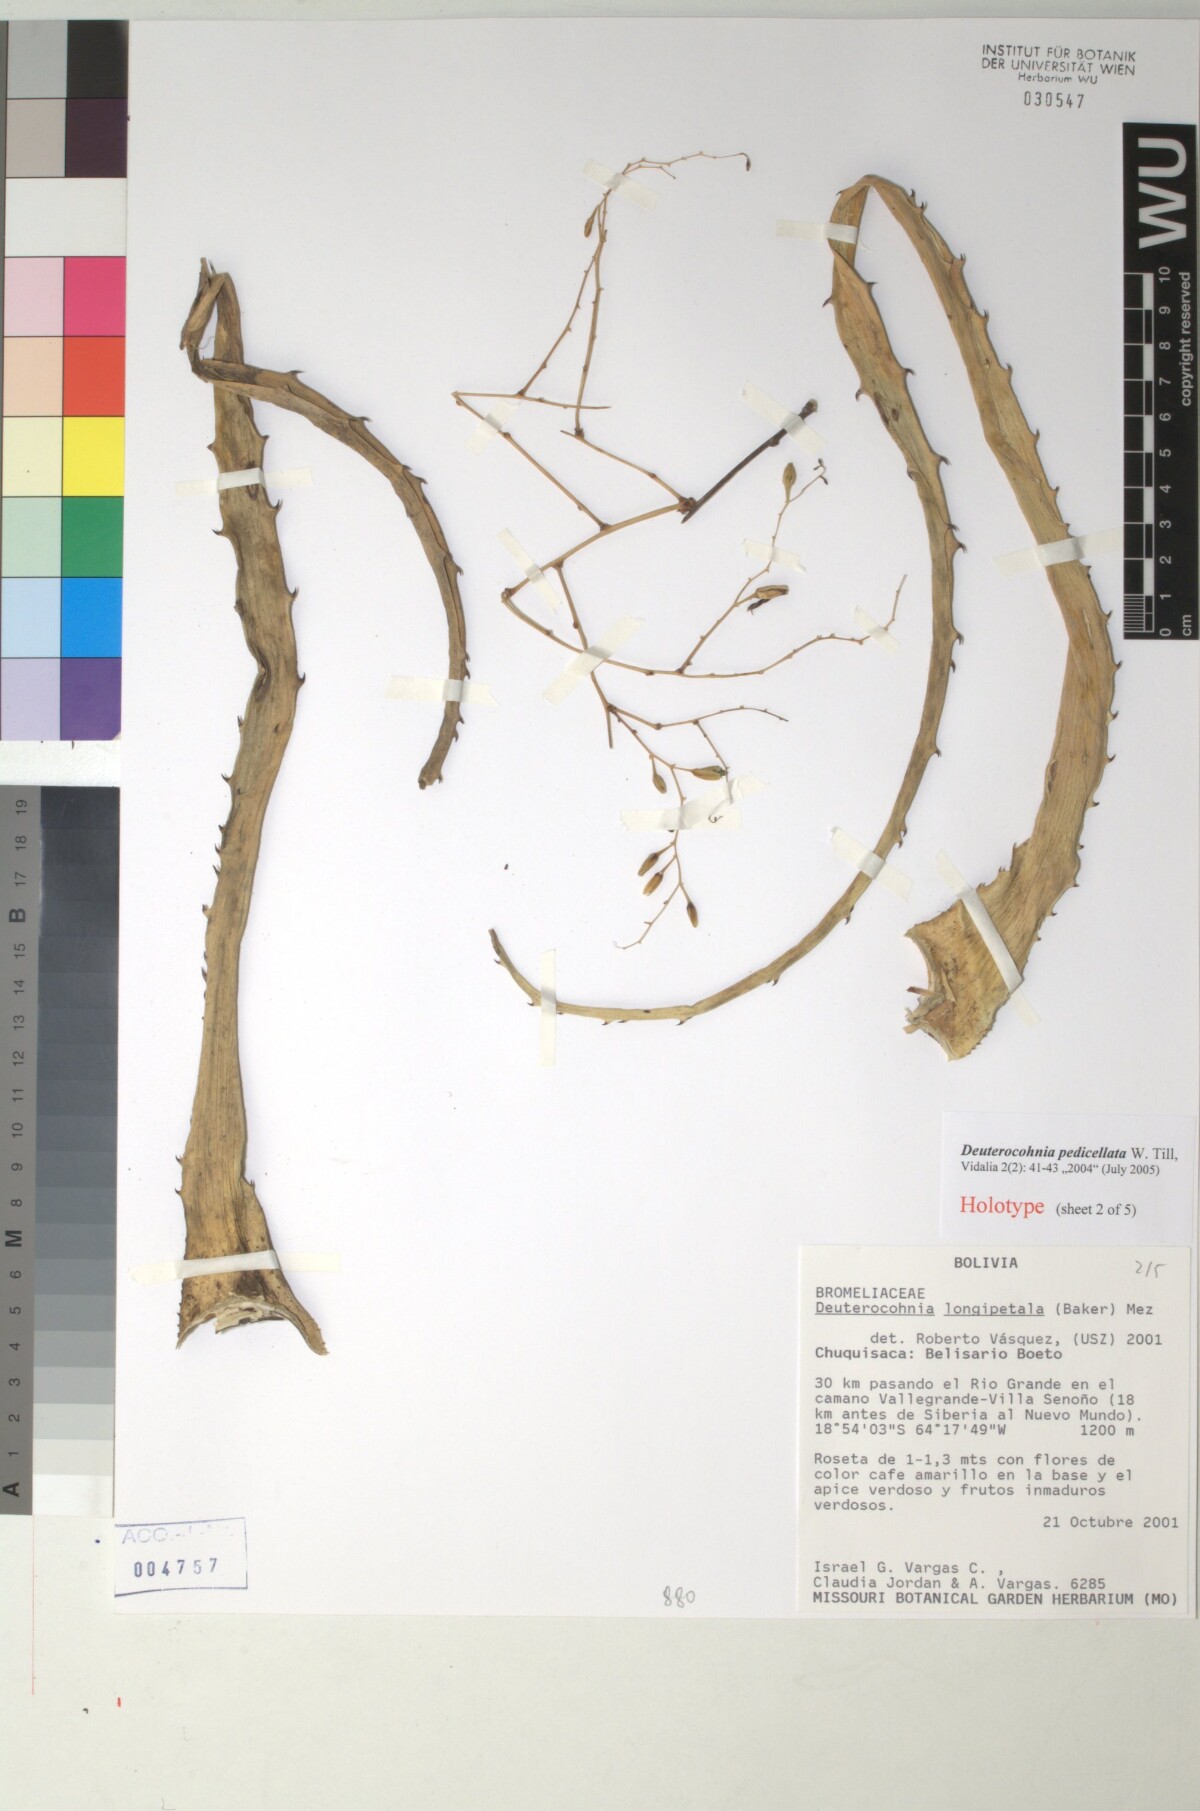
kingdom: Plantae
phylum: Tracheophyta
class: Liliopsida
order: Poales
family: Bromeliaceae
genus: Deuterocohnia
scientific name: Deuterocohnia meziana
